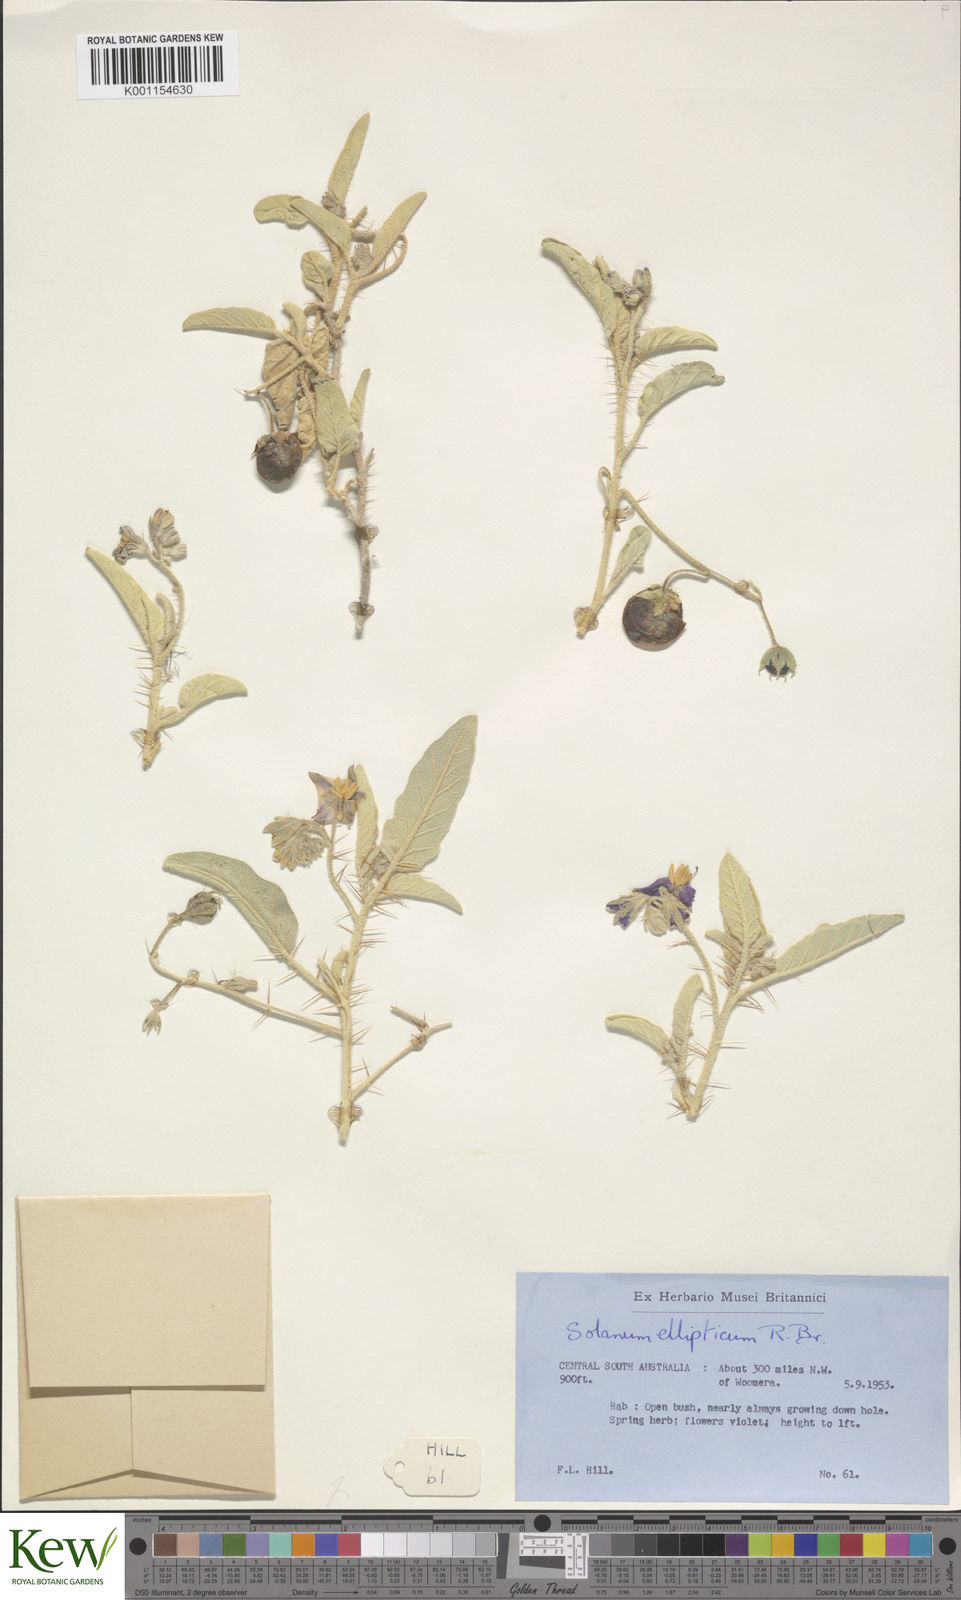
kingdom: Plantae
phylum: Tracheophyta
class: Magnoliopsida
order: Solanales
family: Solanaceae
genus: Solanum
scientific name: Solanum ellipticum
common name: Potato-bush
